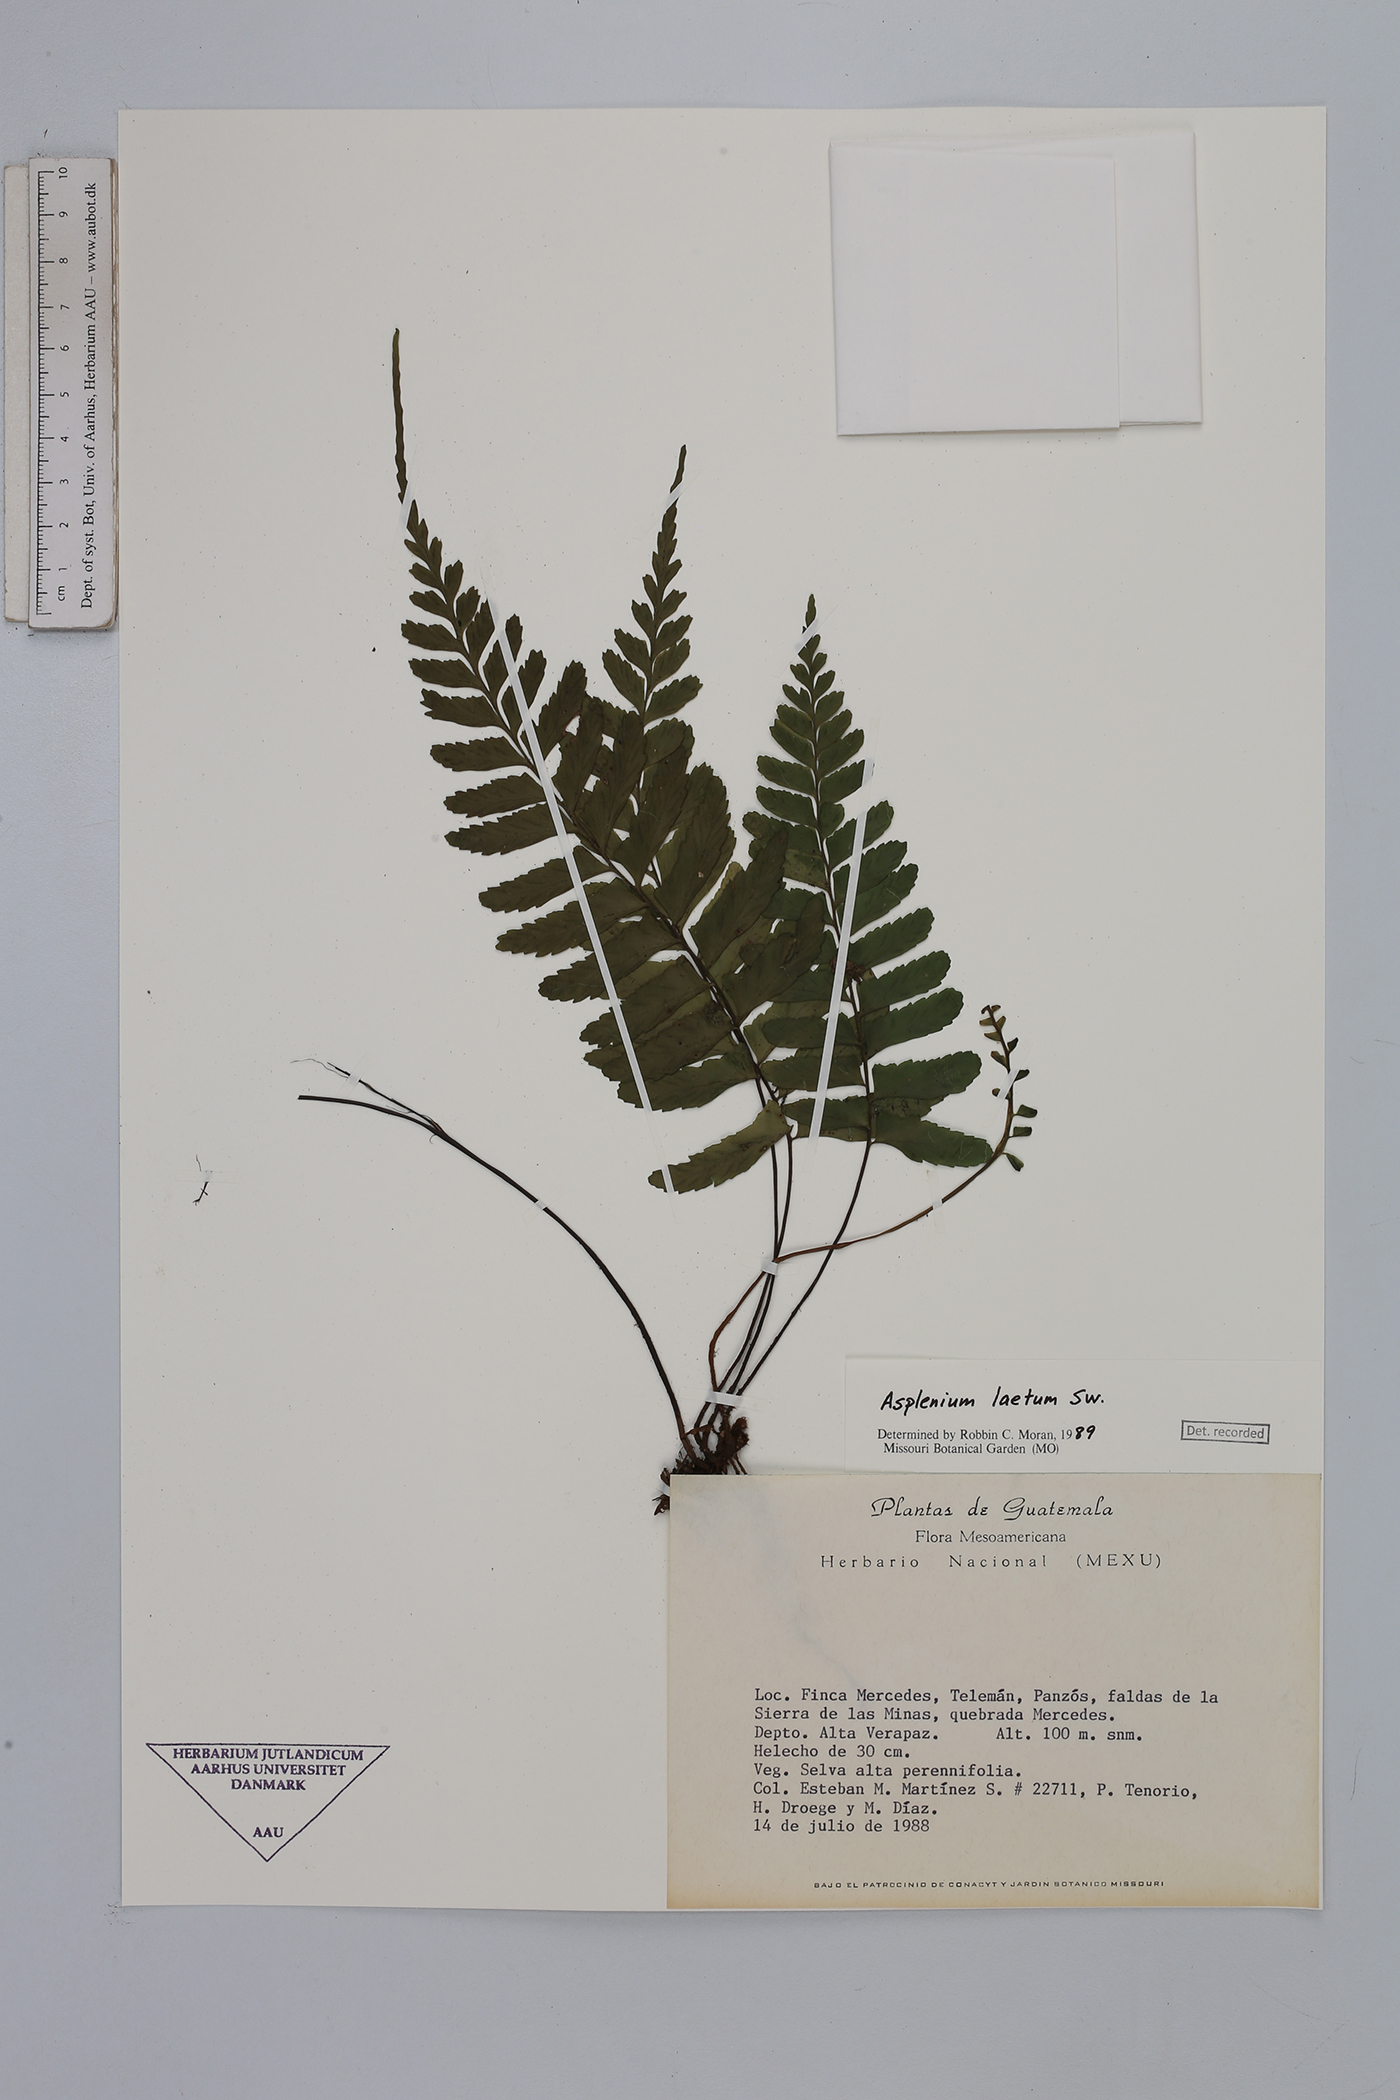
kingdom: Plantae
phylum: Tracheophyta
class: Polypodiopsida
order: Polypodiales
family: Aspleniaceae
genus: Hymenasplenium
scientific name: Hymenasplenium laetum
